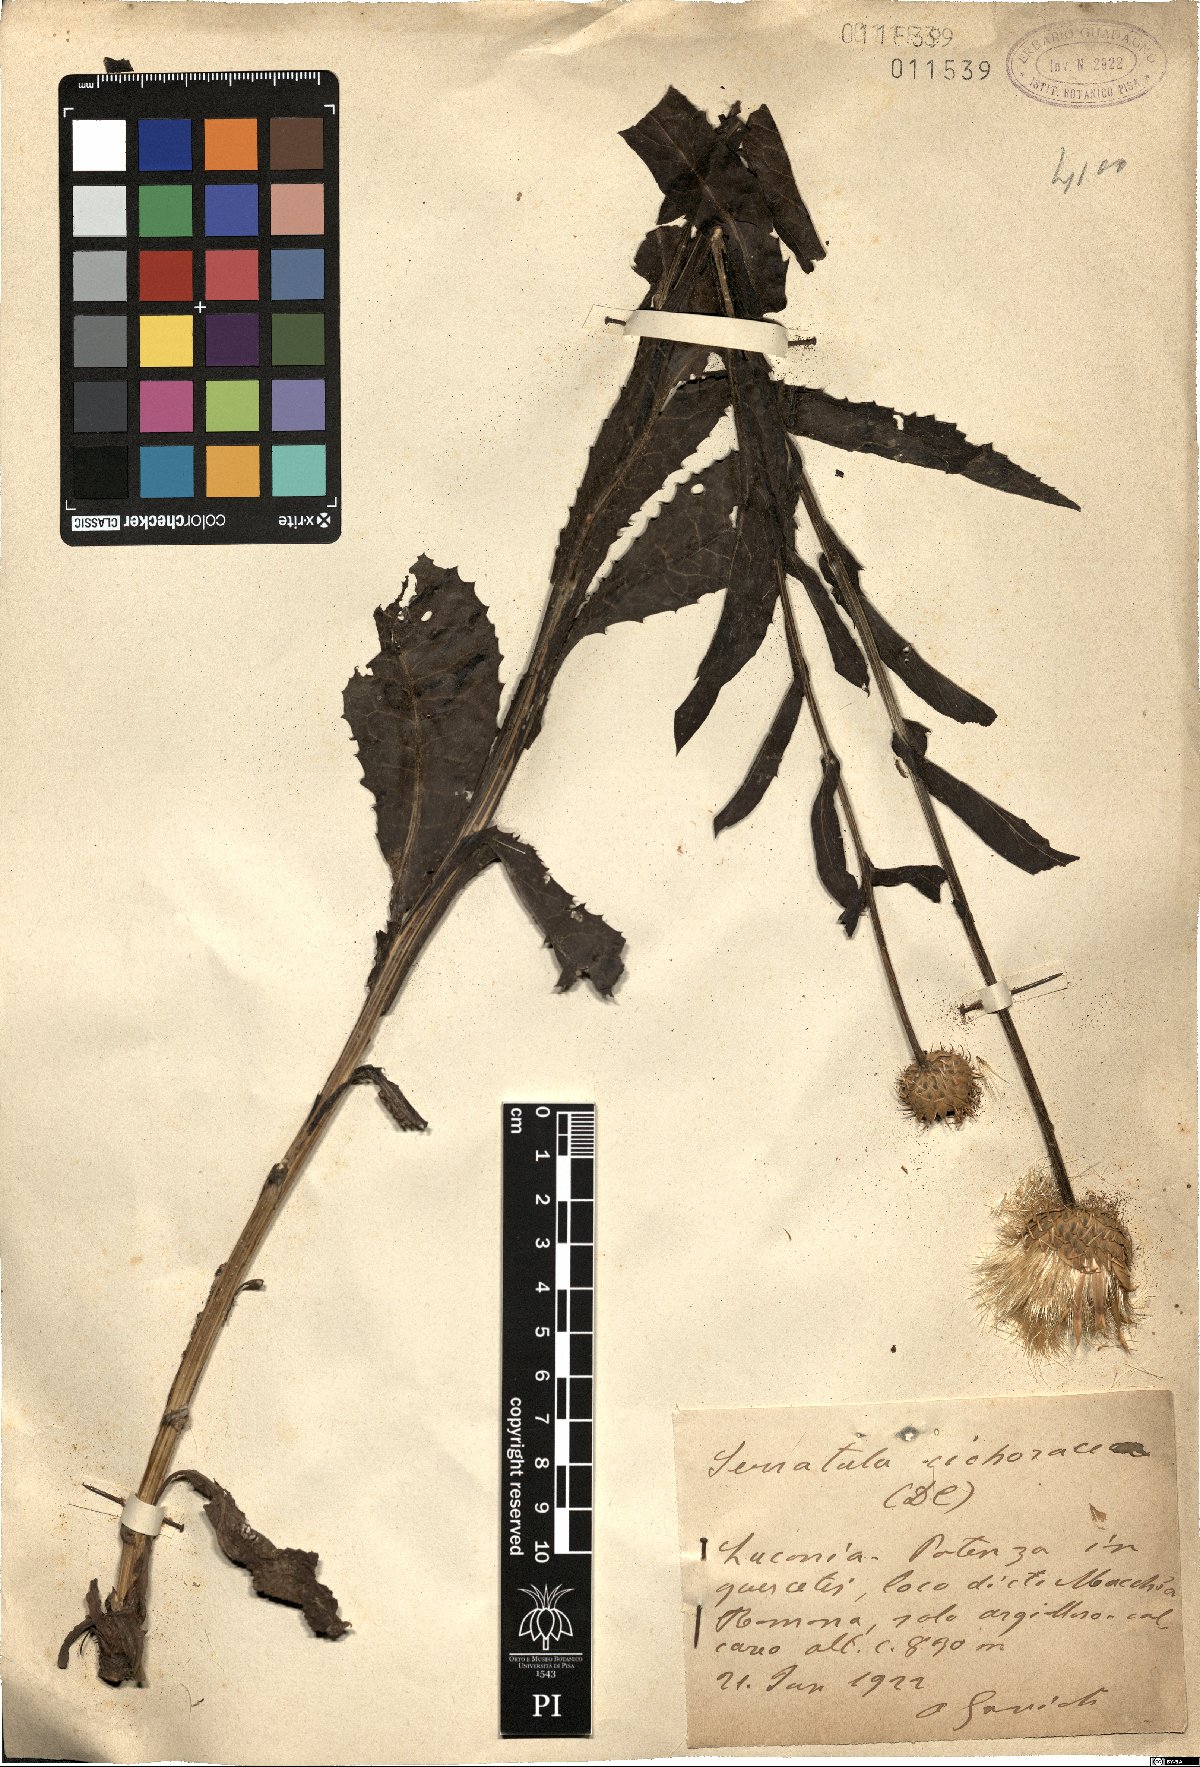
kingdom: Plantae
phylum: Tracheophyta
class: Magnoliopsida
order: Asterales
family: Asteraceae
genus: Klasea
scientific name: Klasea flavescens
